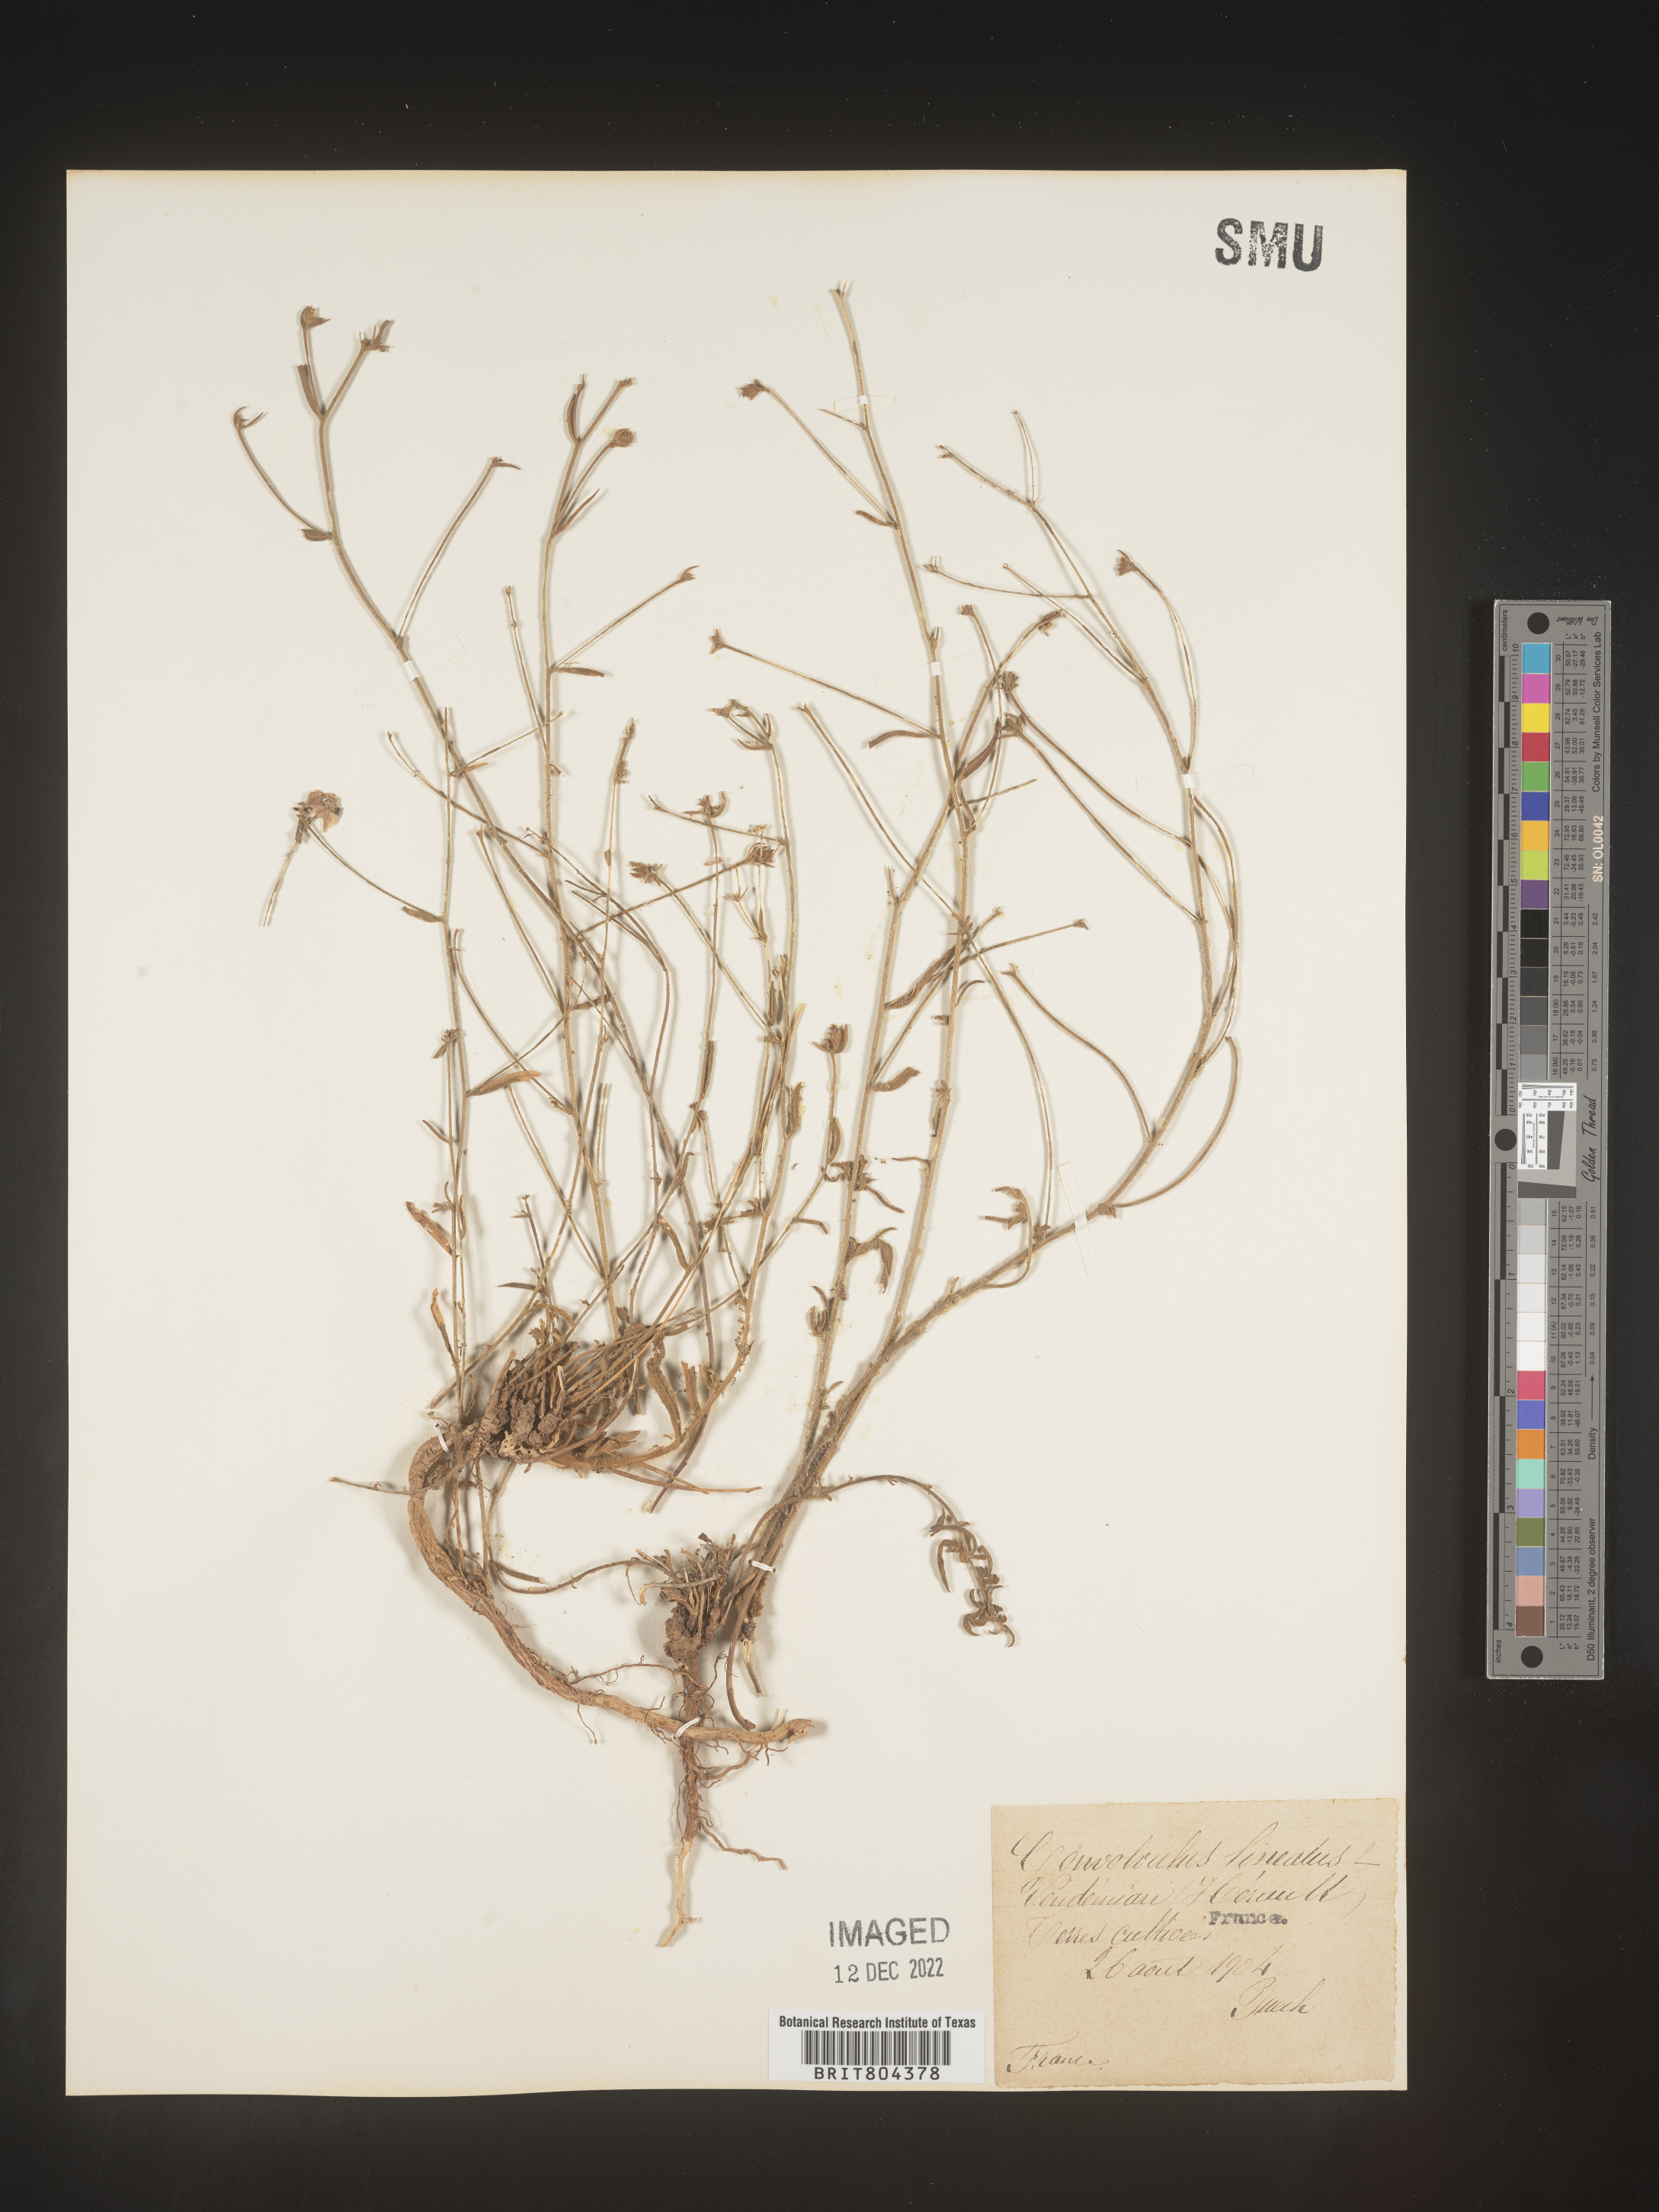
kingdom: Plantae
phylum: Tracheophyta
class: Magnoliopsida
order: Solanales
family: Convolvulaceae
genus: Convolvulus
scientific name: Convolvulus
